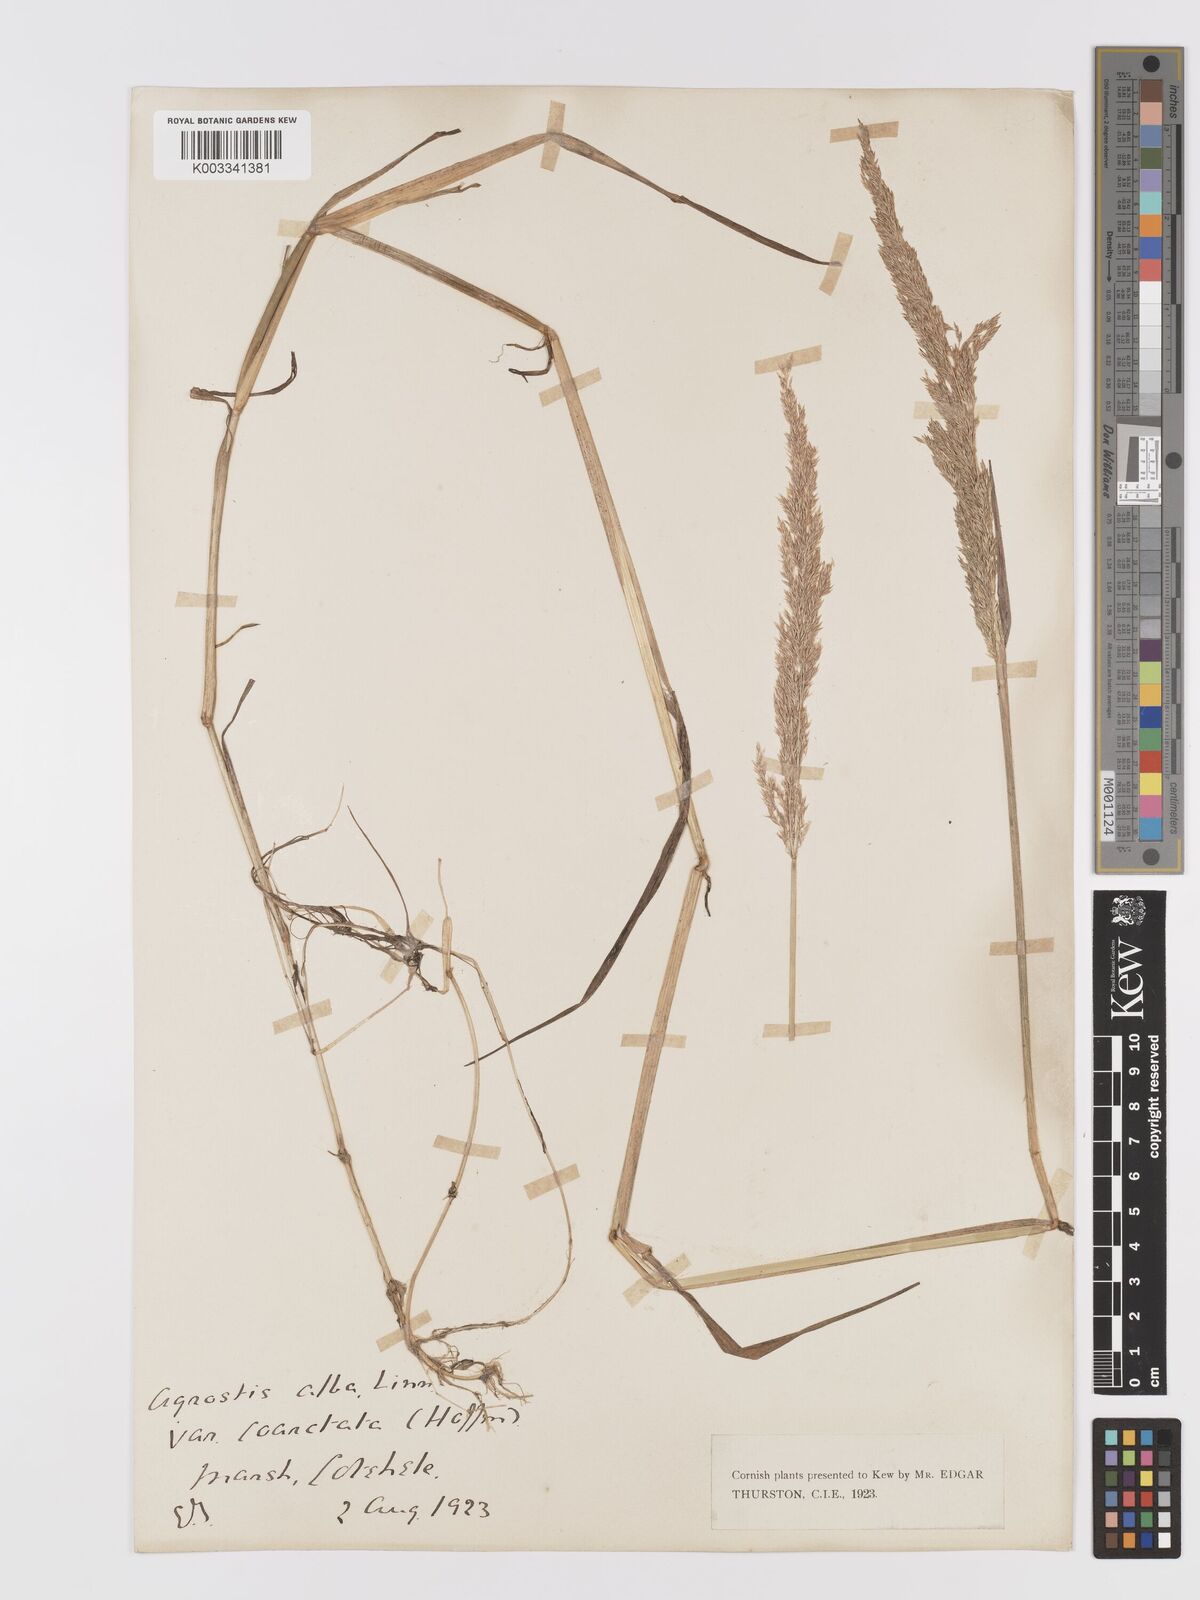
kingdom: Plantae
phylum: Tracheophyta
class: Liliopsida
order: Poales
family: Poaceae
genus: Agrostis
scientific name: Agrostis stolonifera
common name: Creeping bentgrass
